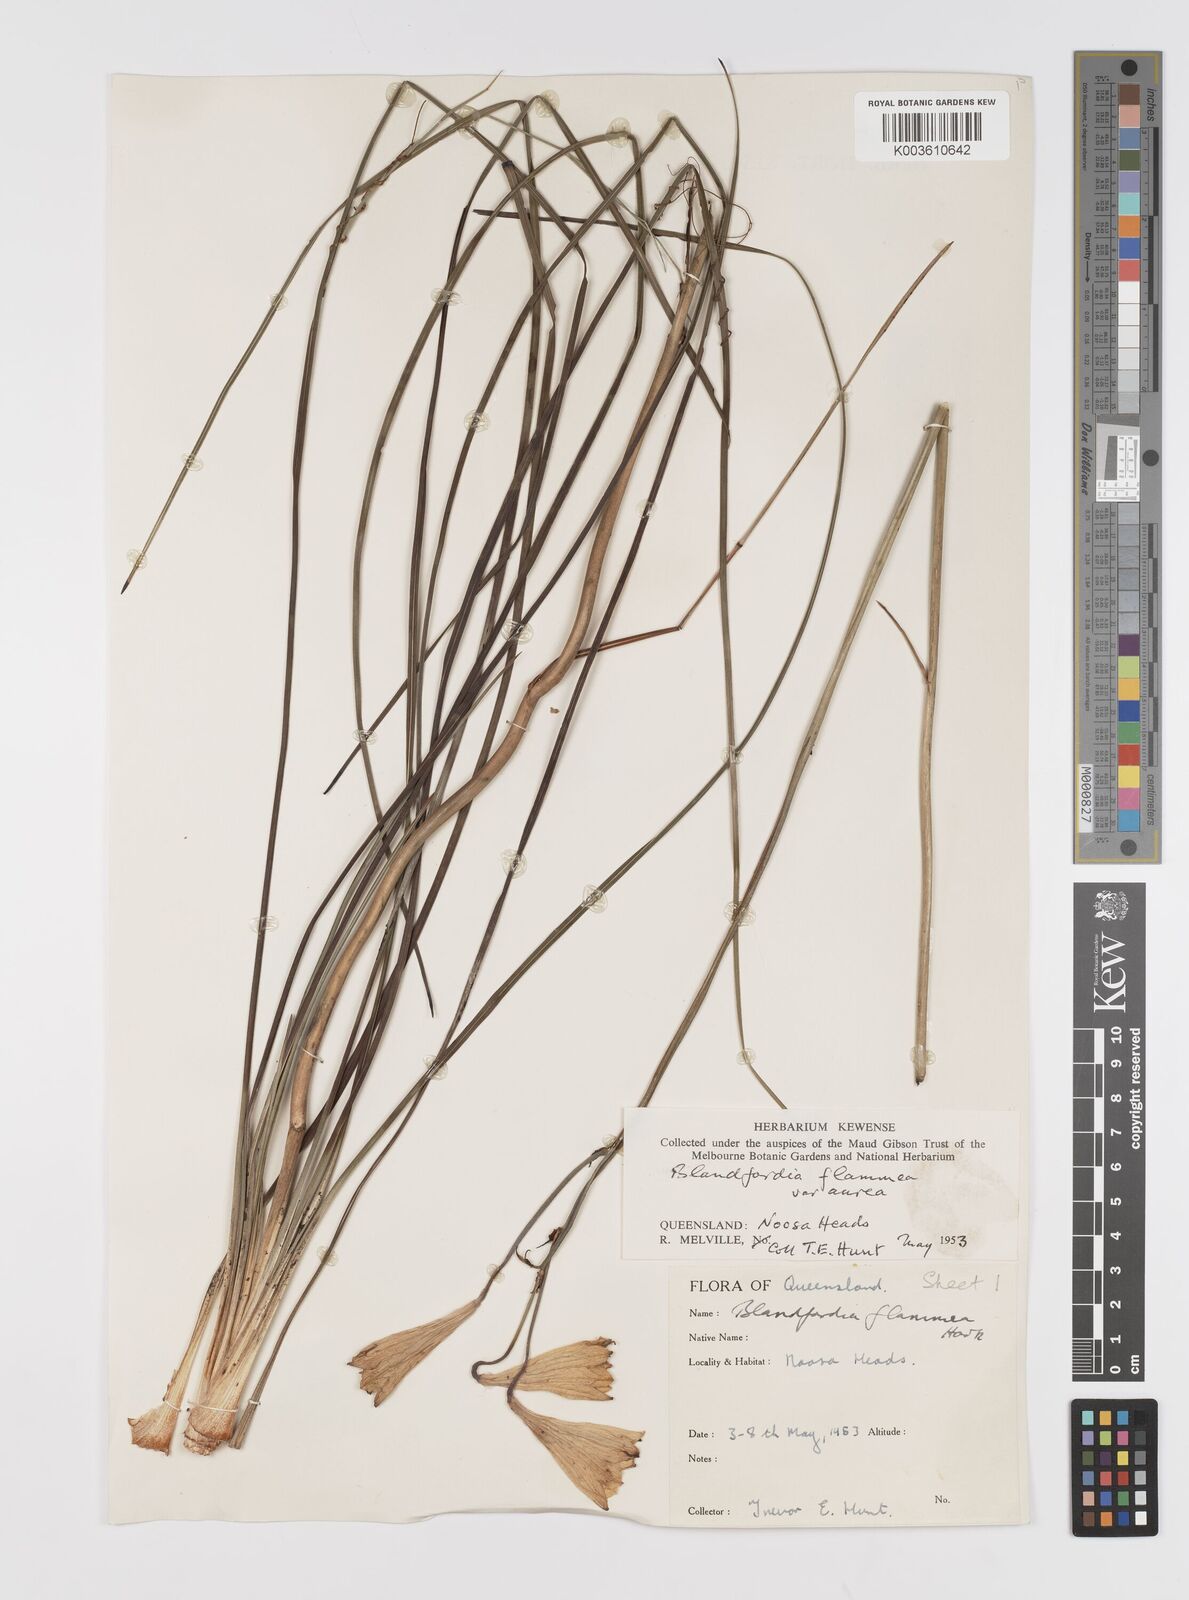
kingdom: Plantae
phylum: Tracheophyta
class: Liliopsida
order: Asparagales
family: Blandfordiaceae
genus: Blandfordia
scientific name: Blandfordia punicea
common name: Tasmanian christmas-bell
